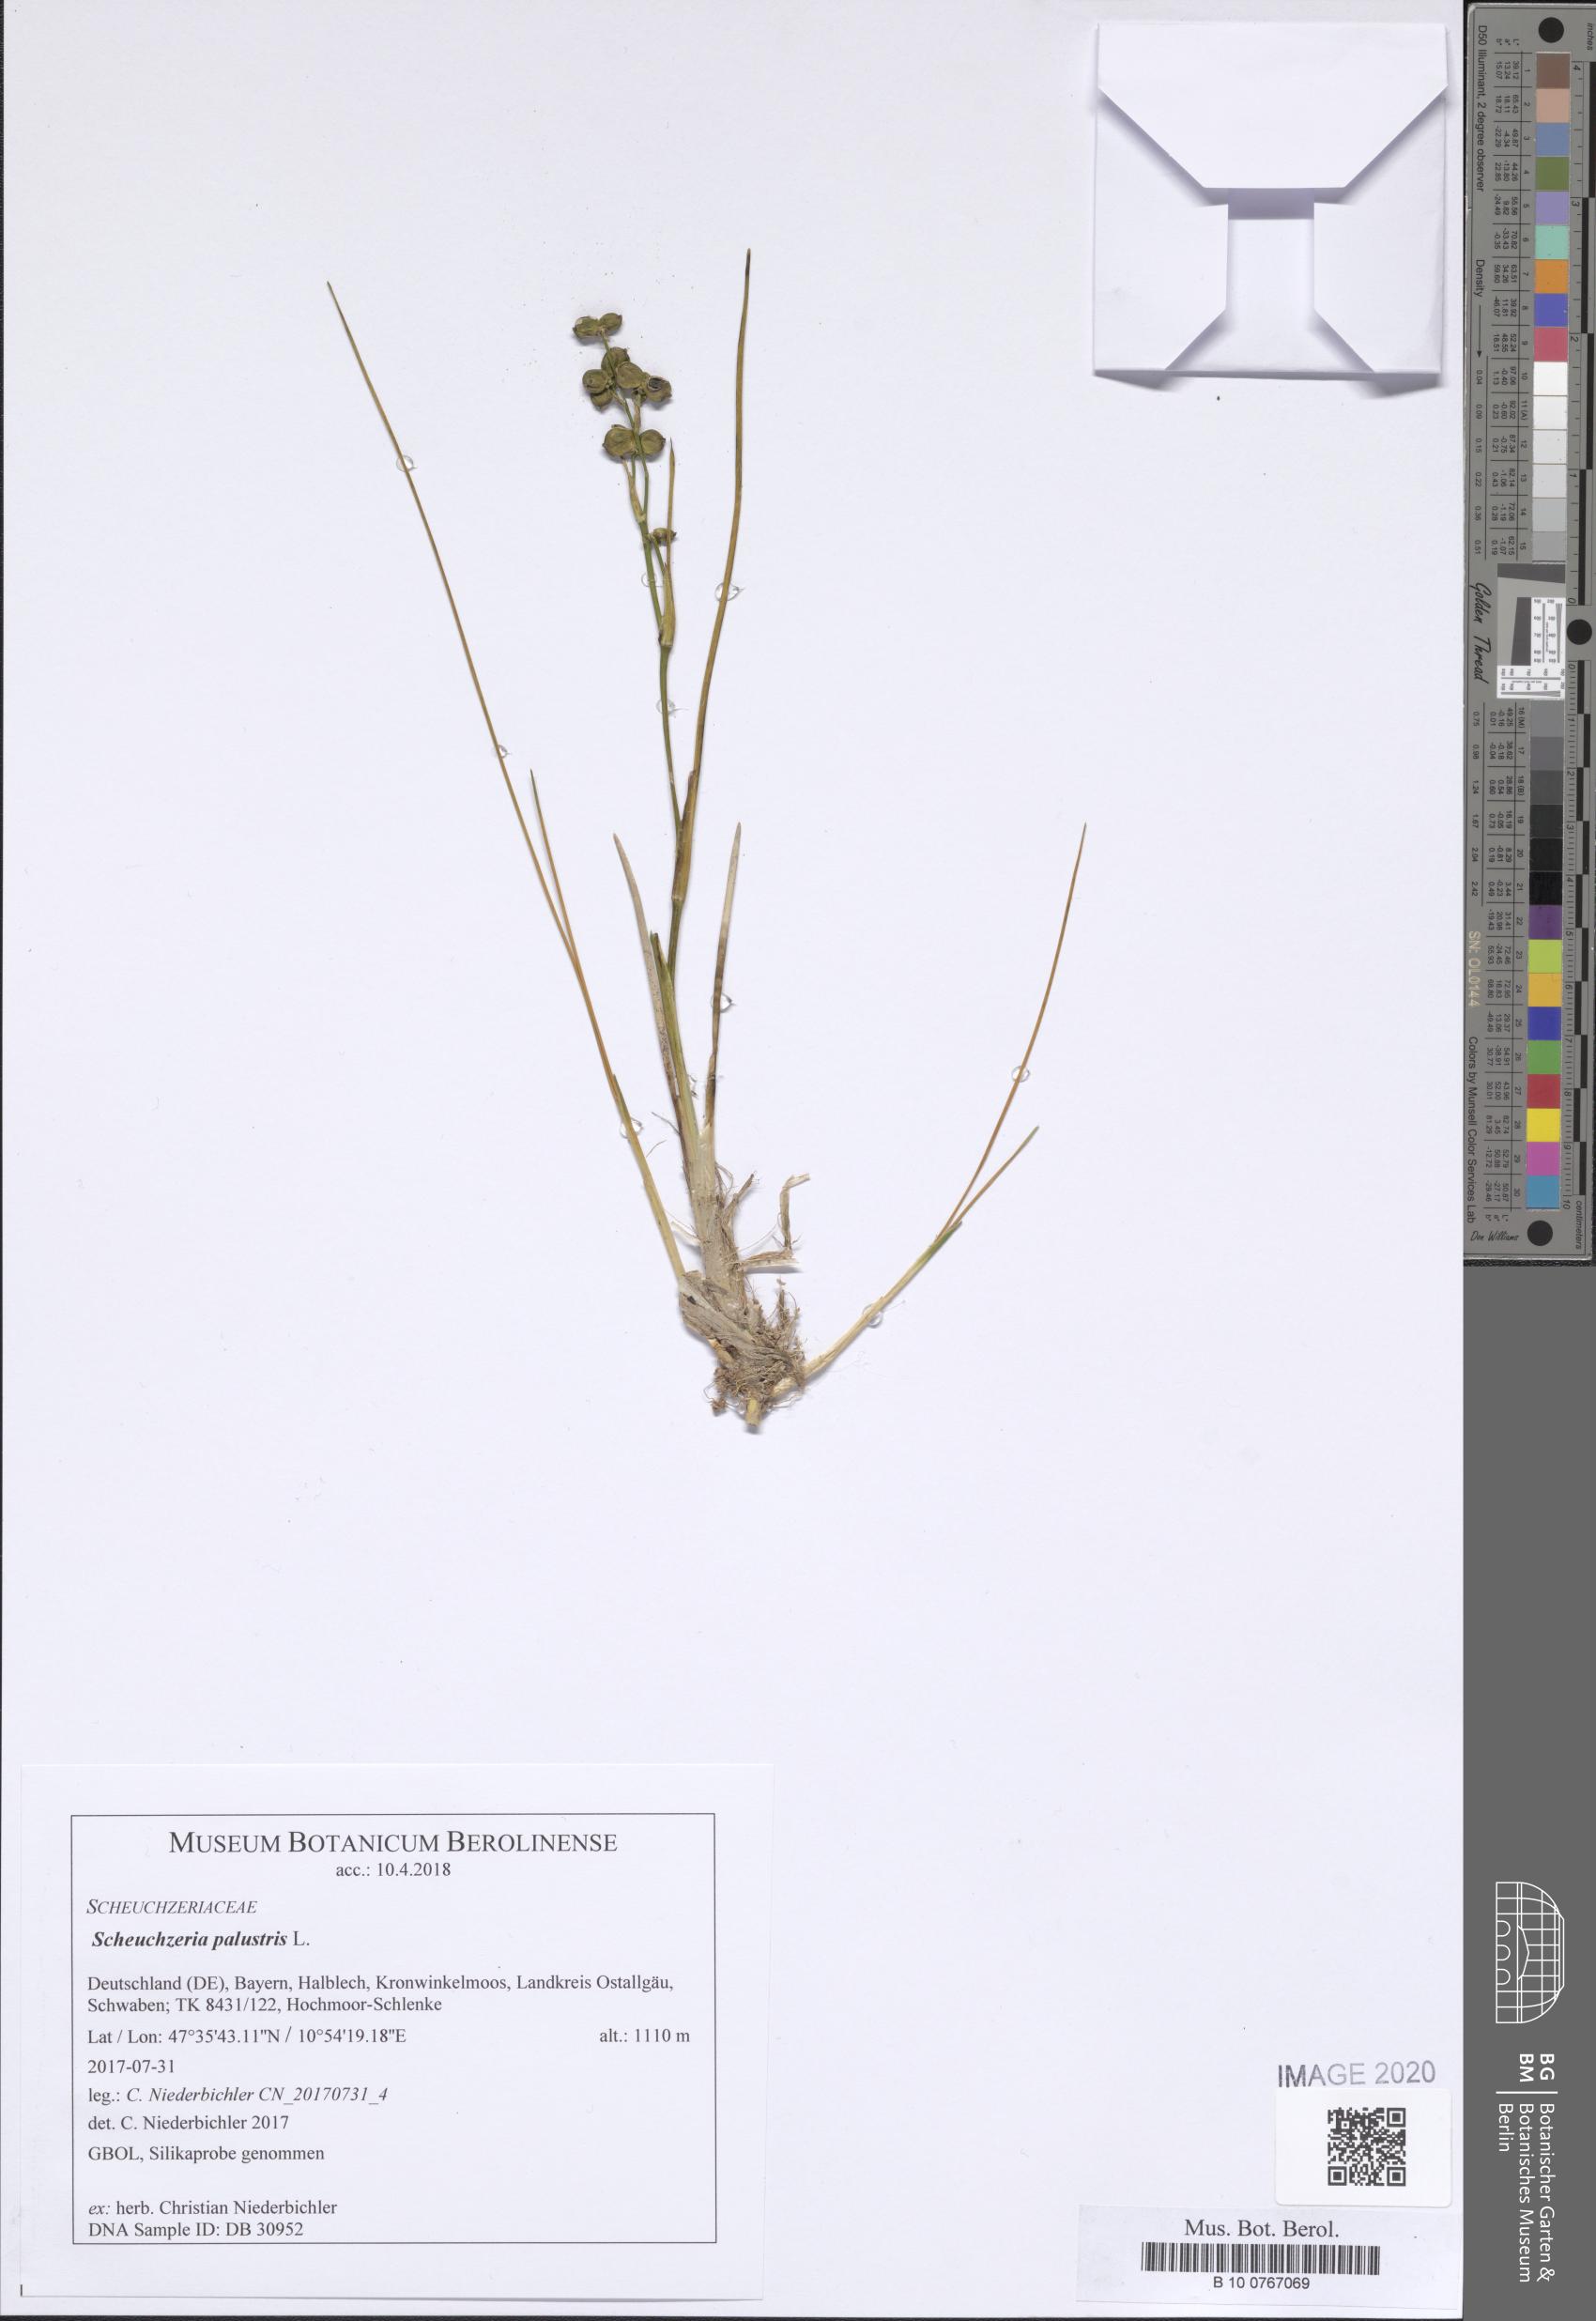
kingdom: Plantae
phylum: Tracheophyta
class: Liliopsida
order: Alismatales
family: Scheuchzeriaceae
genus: Scheuchzeria
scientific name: Scheuchzeria palustris
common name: Rannoch-rush
